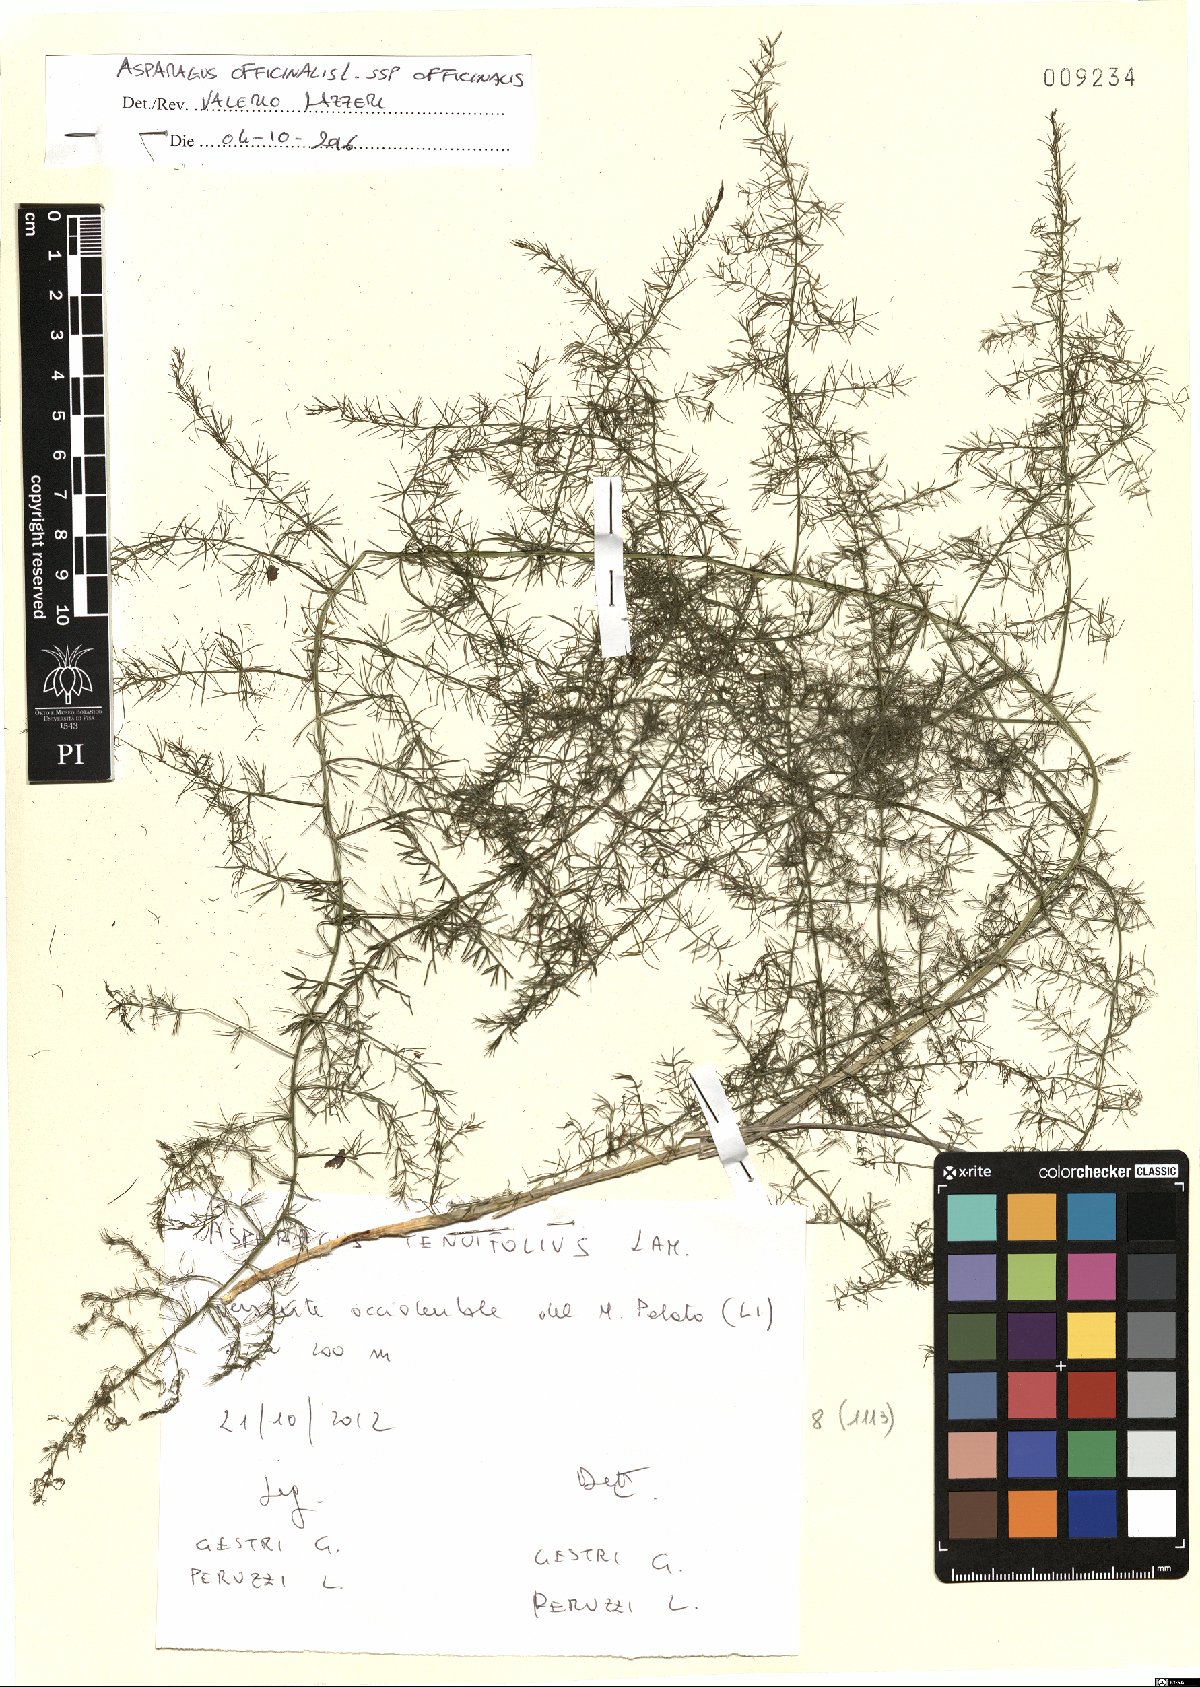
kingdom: Plantae
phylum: Tracheophyta
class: Liliopsida
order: Asparagales
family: Asparagaceae
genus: Asparagus
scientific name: Asparagus officinalis
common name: Garden asparagus
